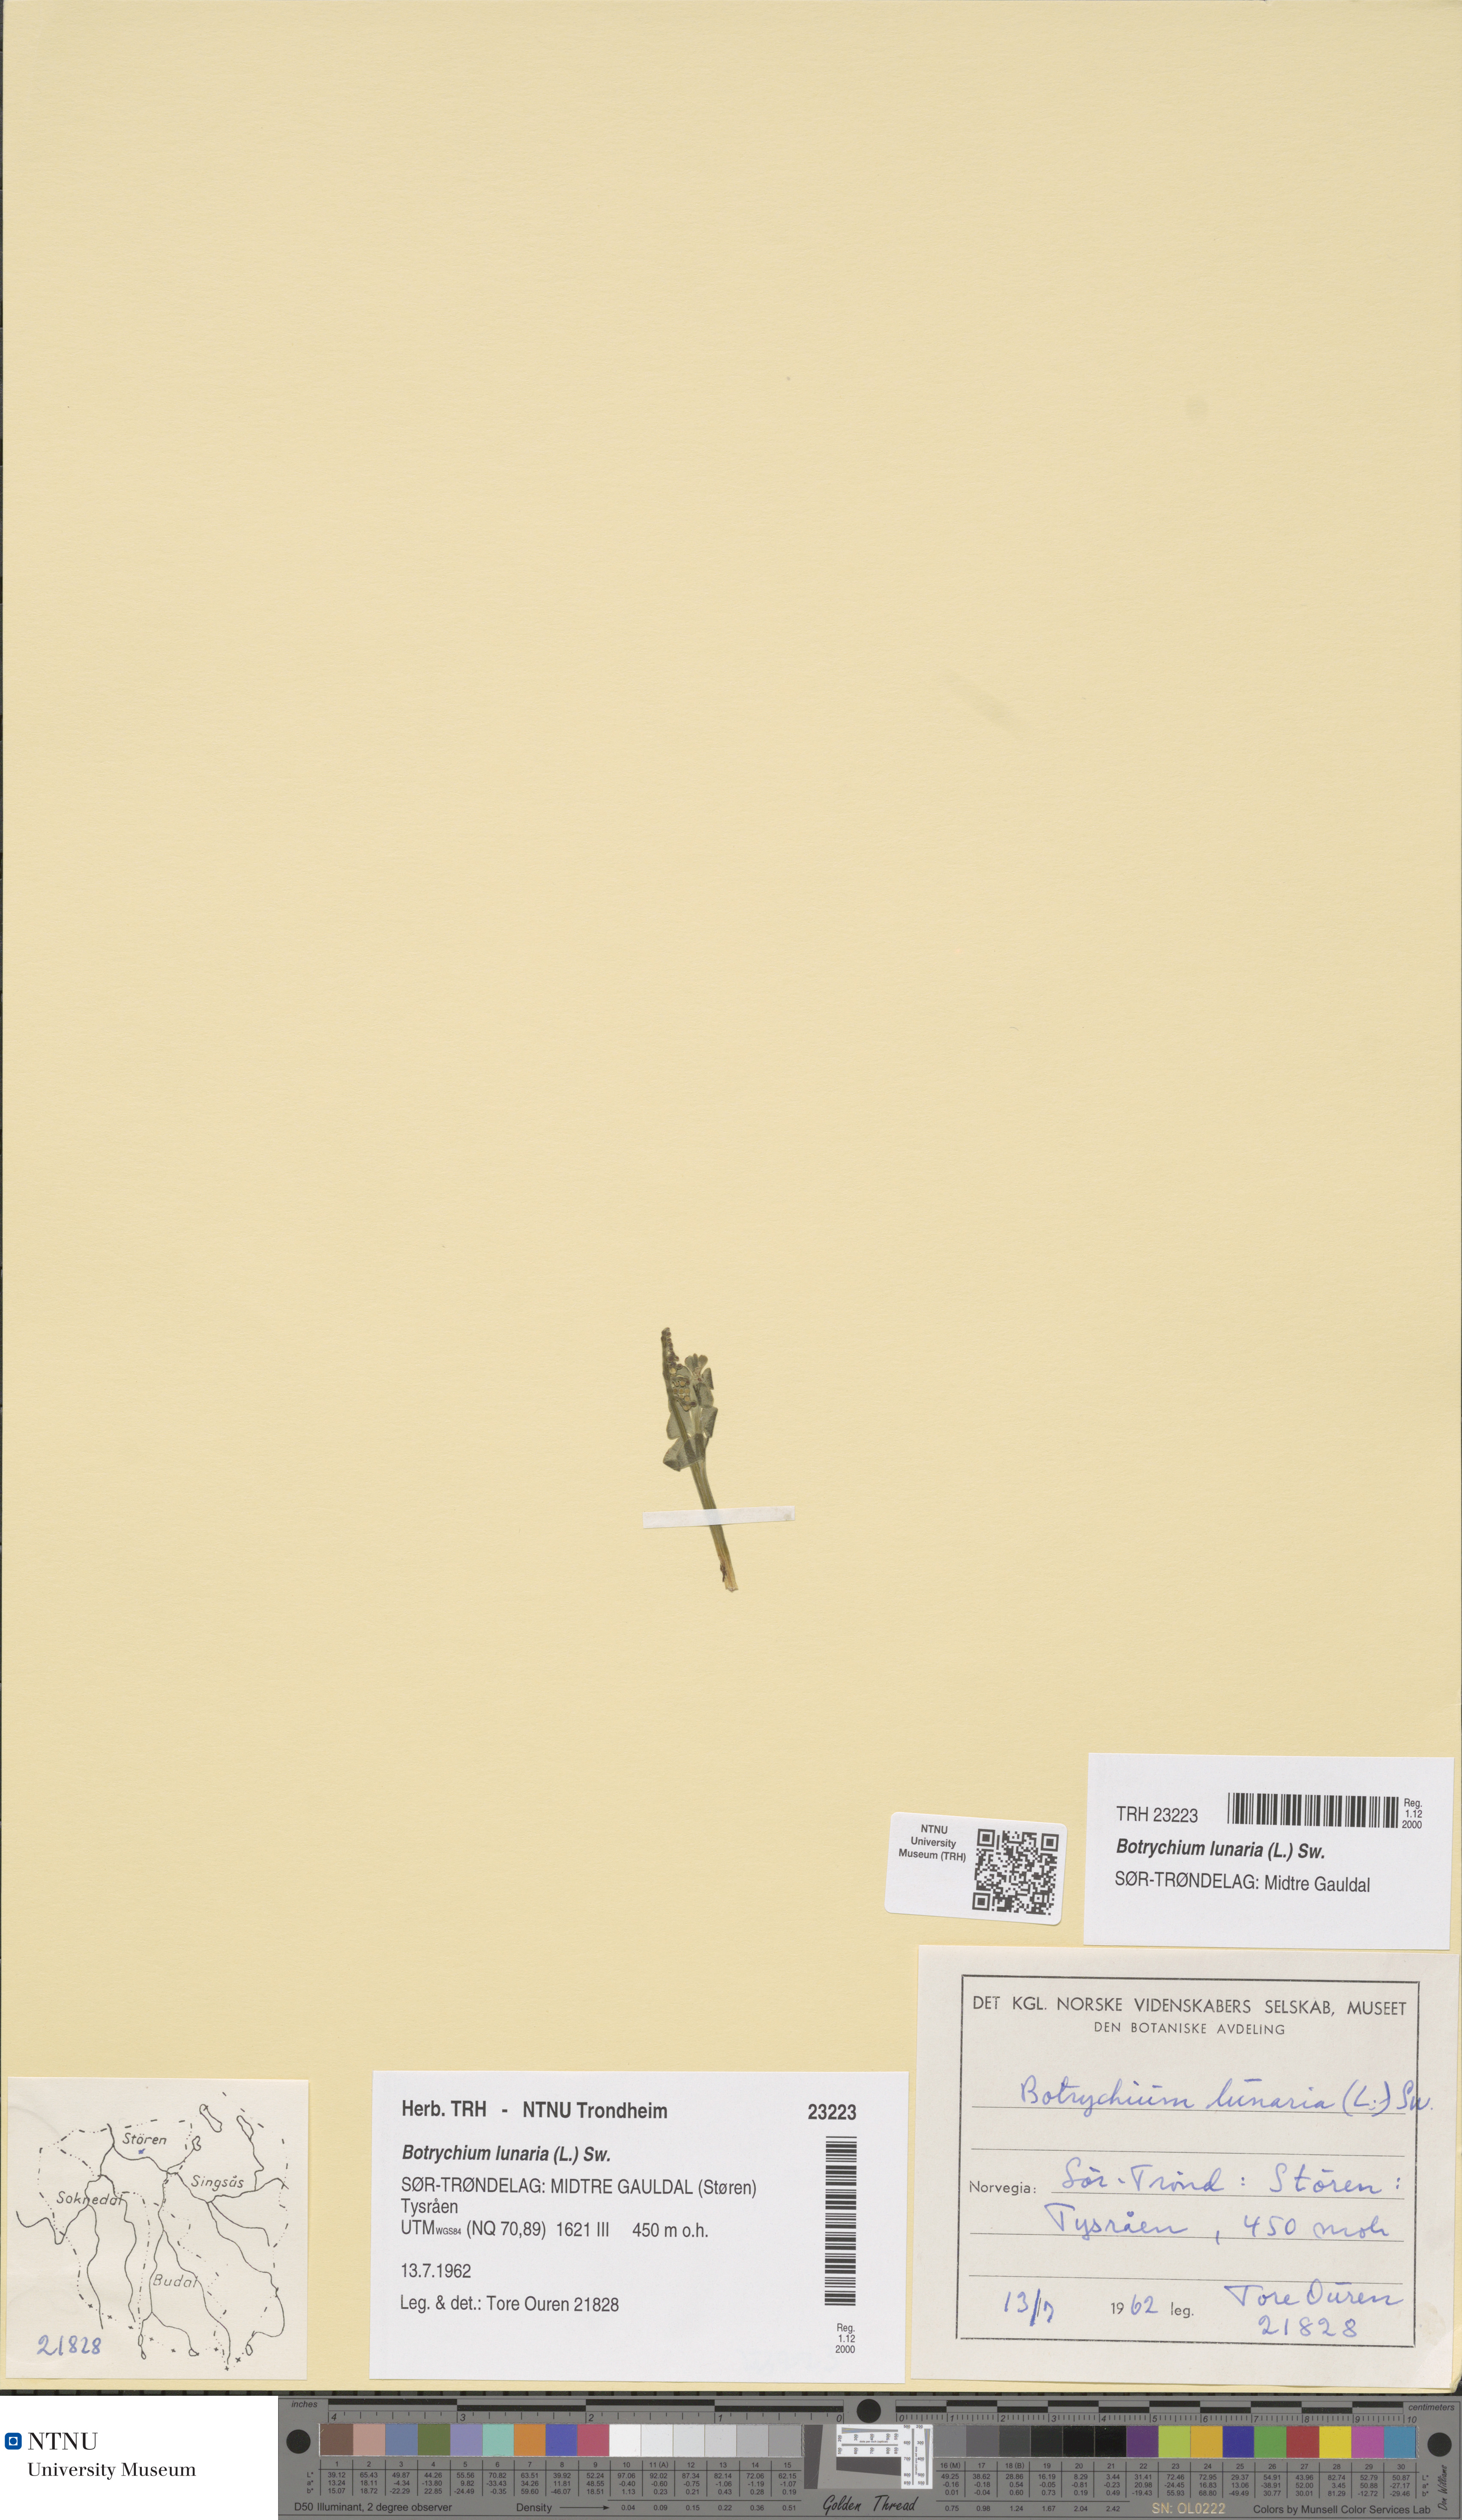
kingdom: Plantae
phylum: Tracheophyta
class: Polypodiopsida
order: Ophioglossales
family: Ophioglossaceae
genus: Botrychium
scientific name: Botrychium lunaria
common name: Moonwort
